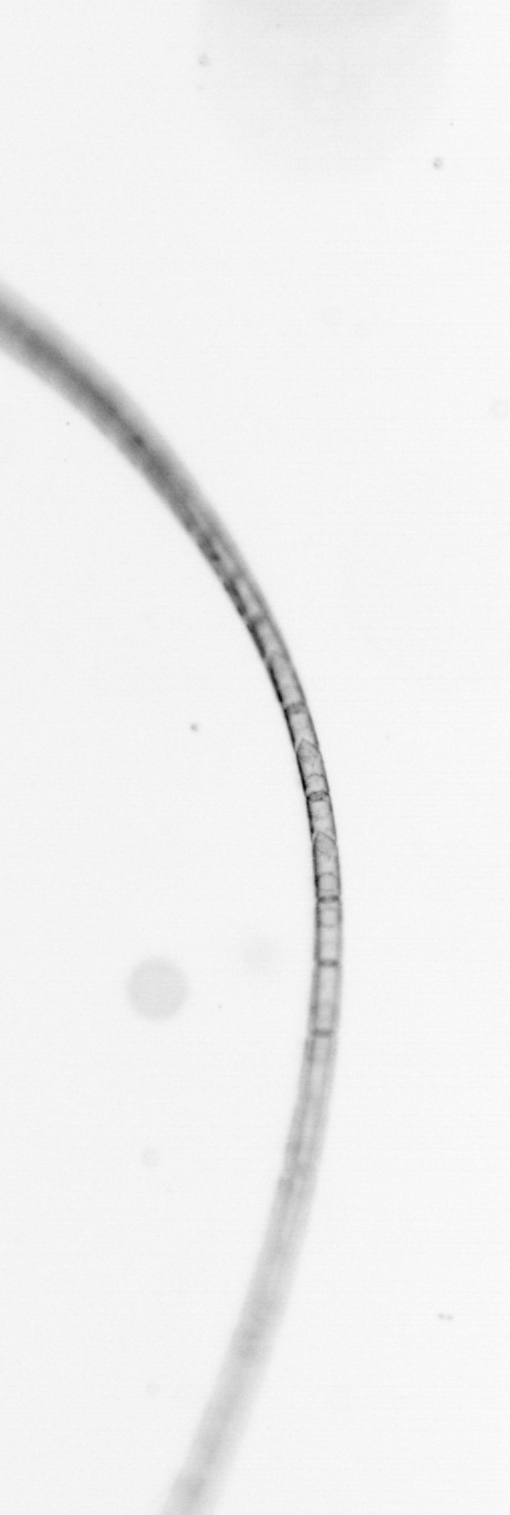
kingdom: Chromista
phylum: Ochrophyta
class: Bacillariophyceae
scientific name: Bacillariophyceae
